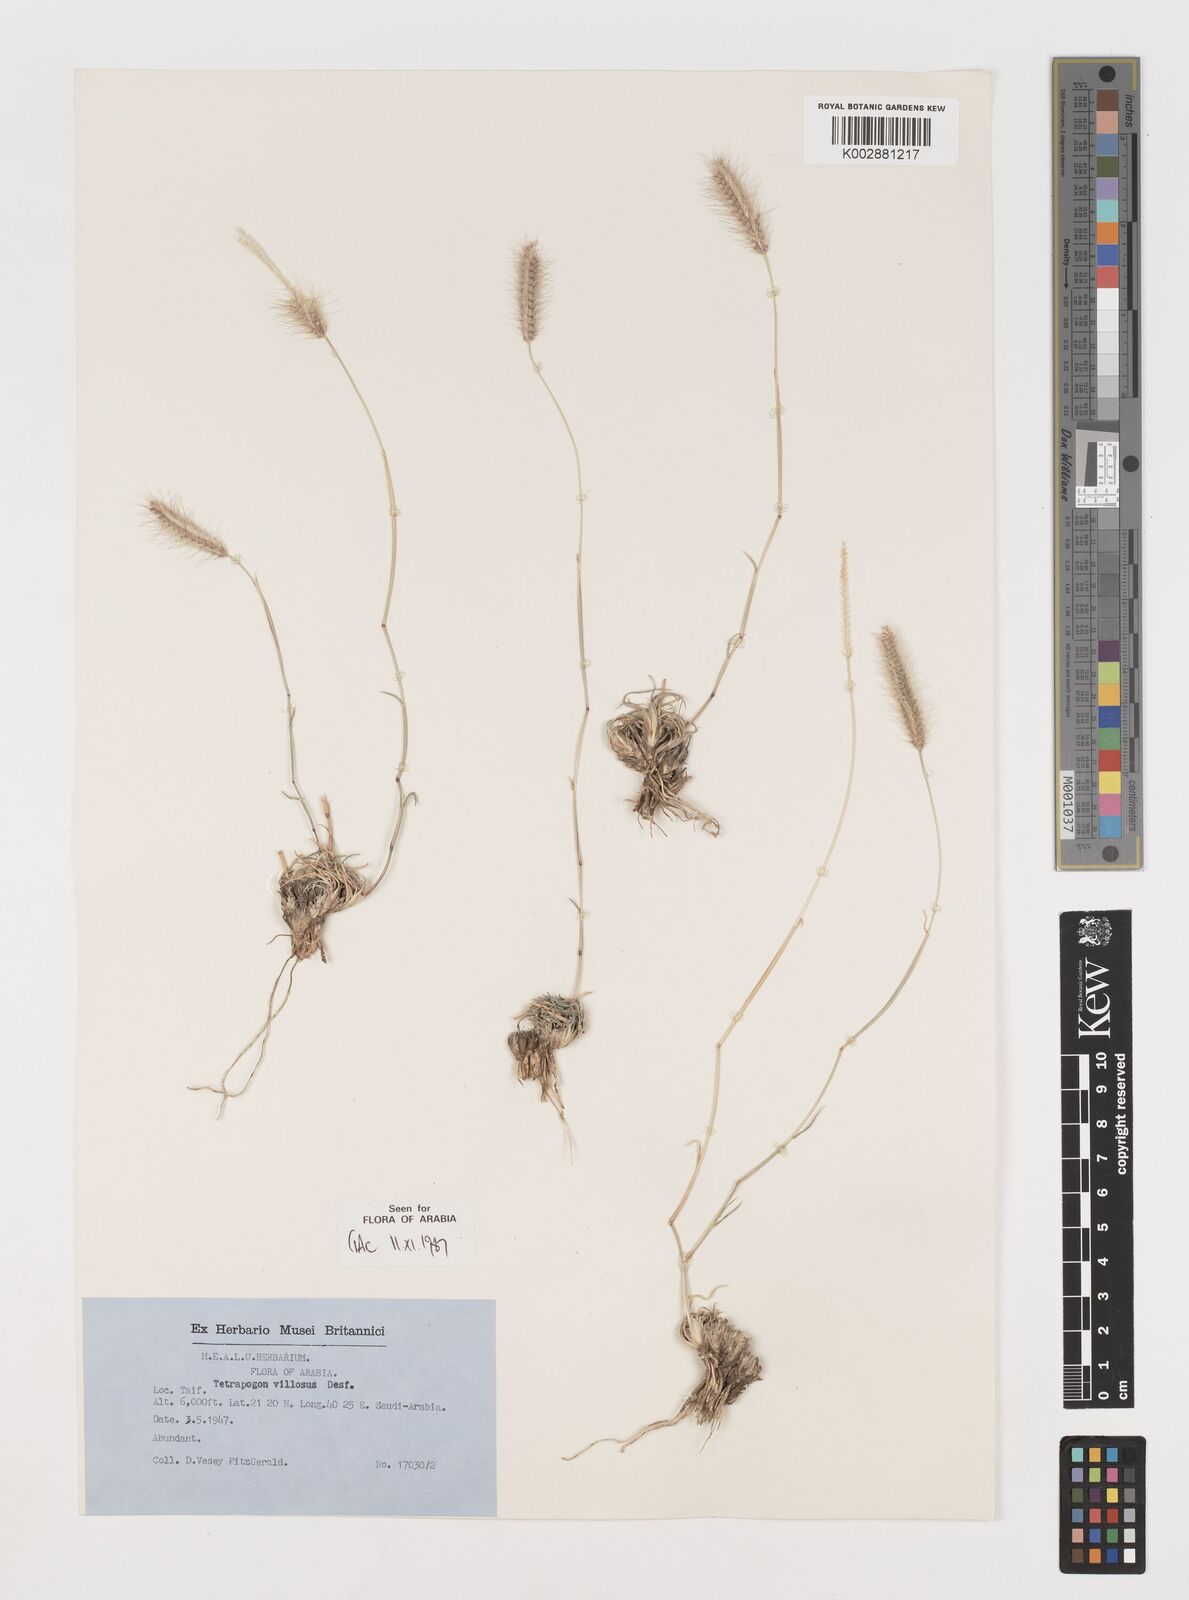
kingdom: Plantae
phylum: Tracheophyta
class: Liliopsida
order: Poales
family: Poaceae
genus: Tetrapogon
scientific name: Tetrapogon villosus
